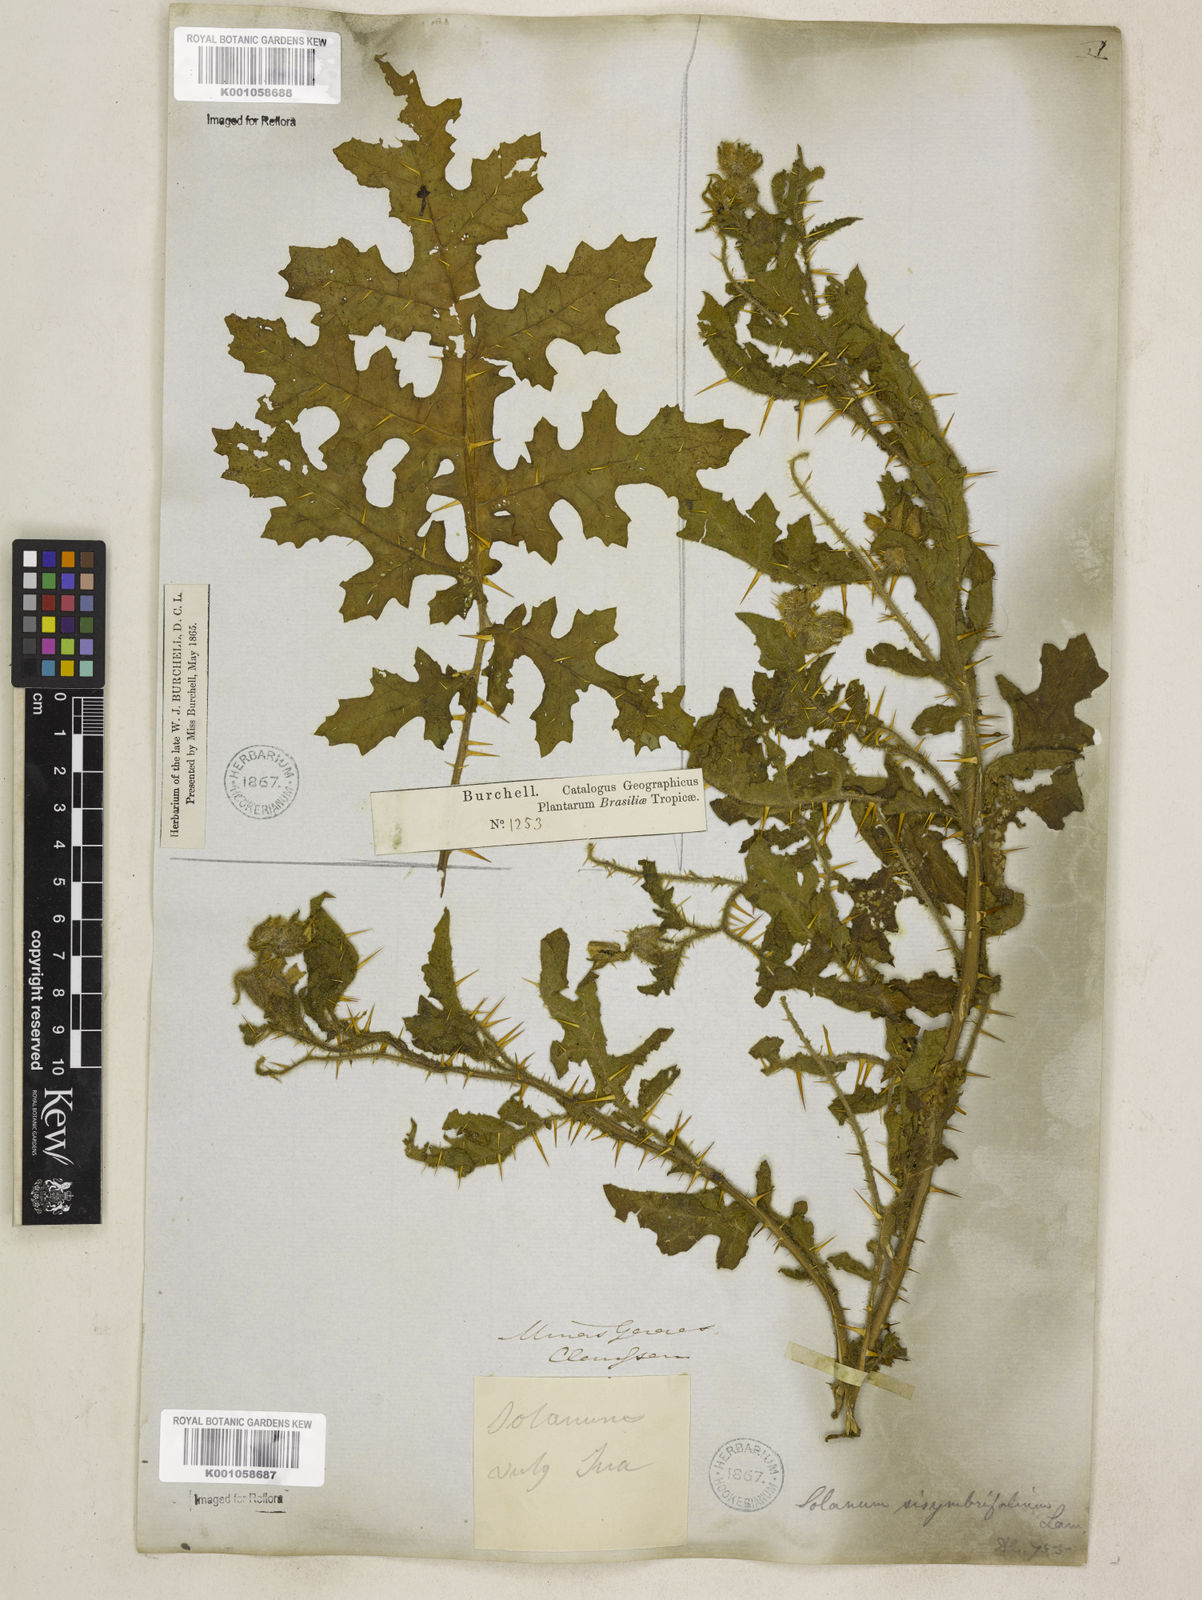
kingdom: Plantae
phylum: Tracheophyta
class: Magnoliopsida
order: Solanales
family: Solanaceae
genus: Solanum
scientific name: Solanum sisymbriifolium
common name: Red buffalo-bur
